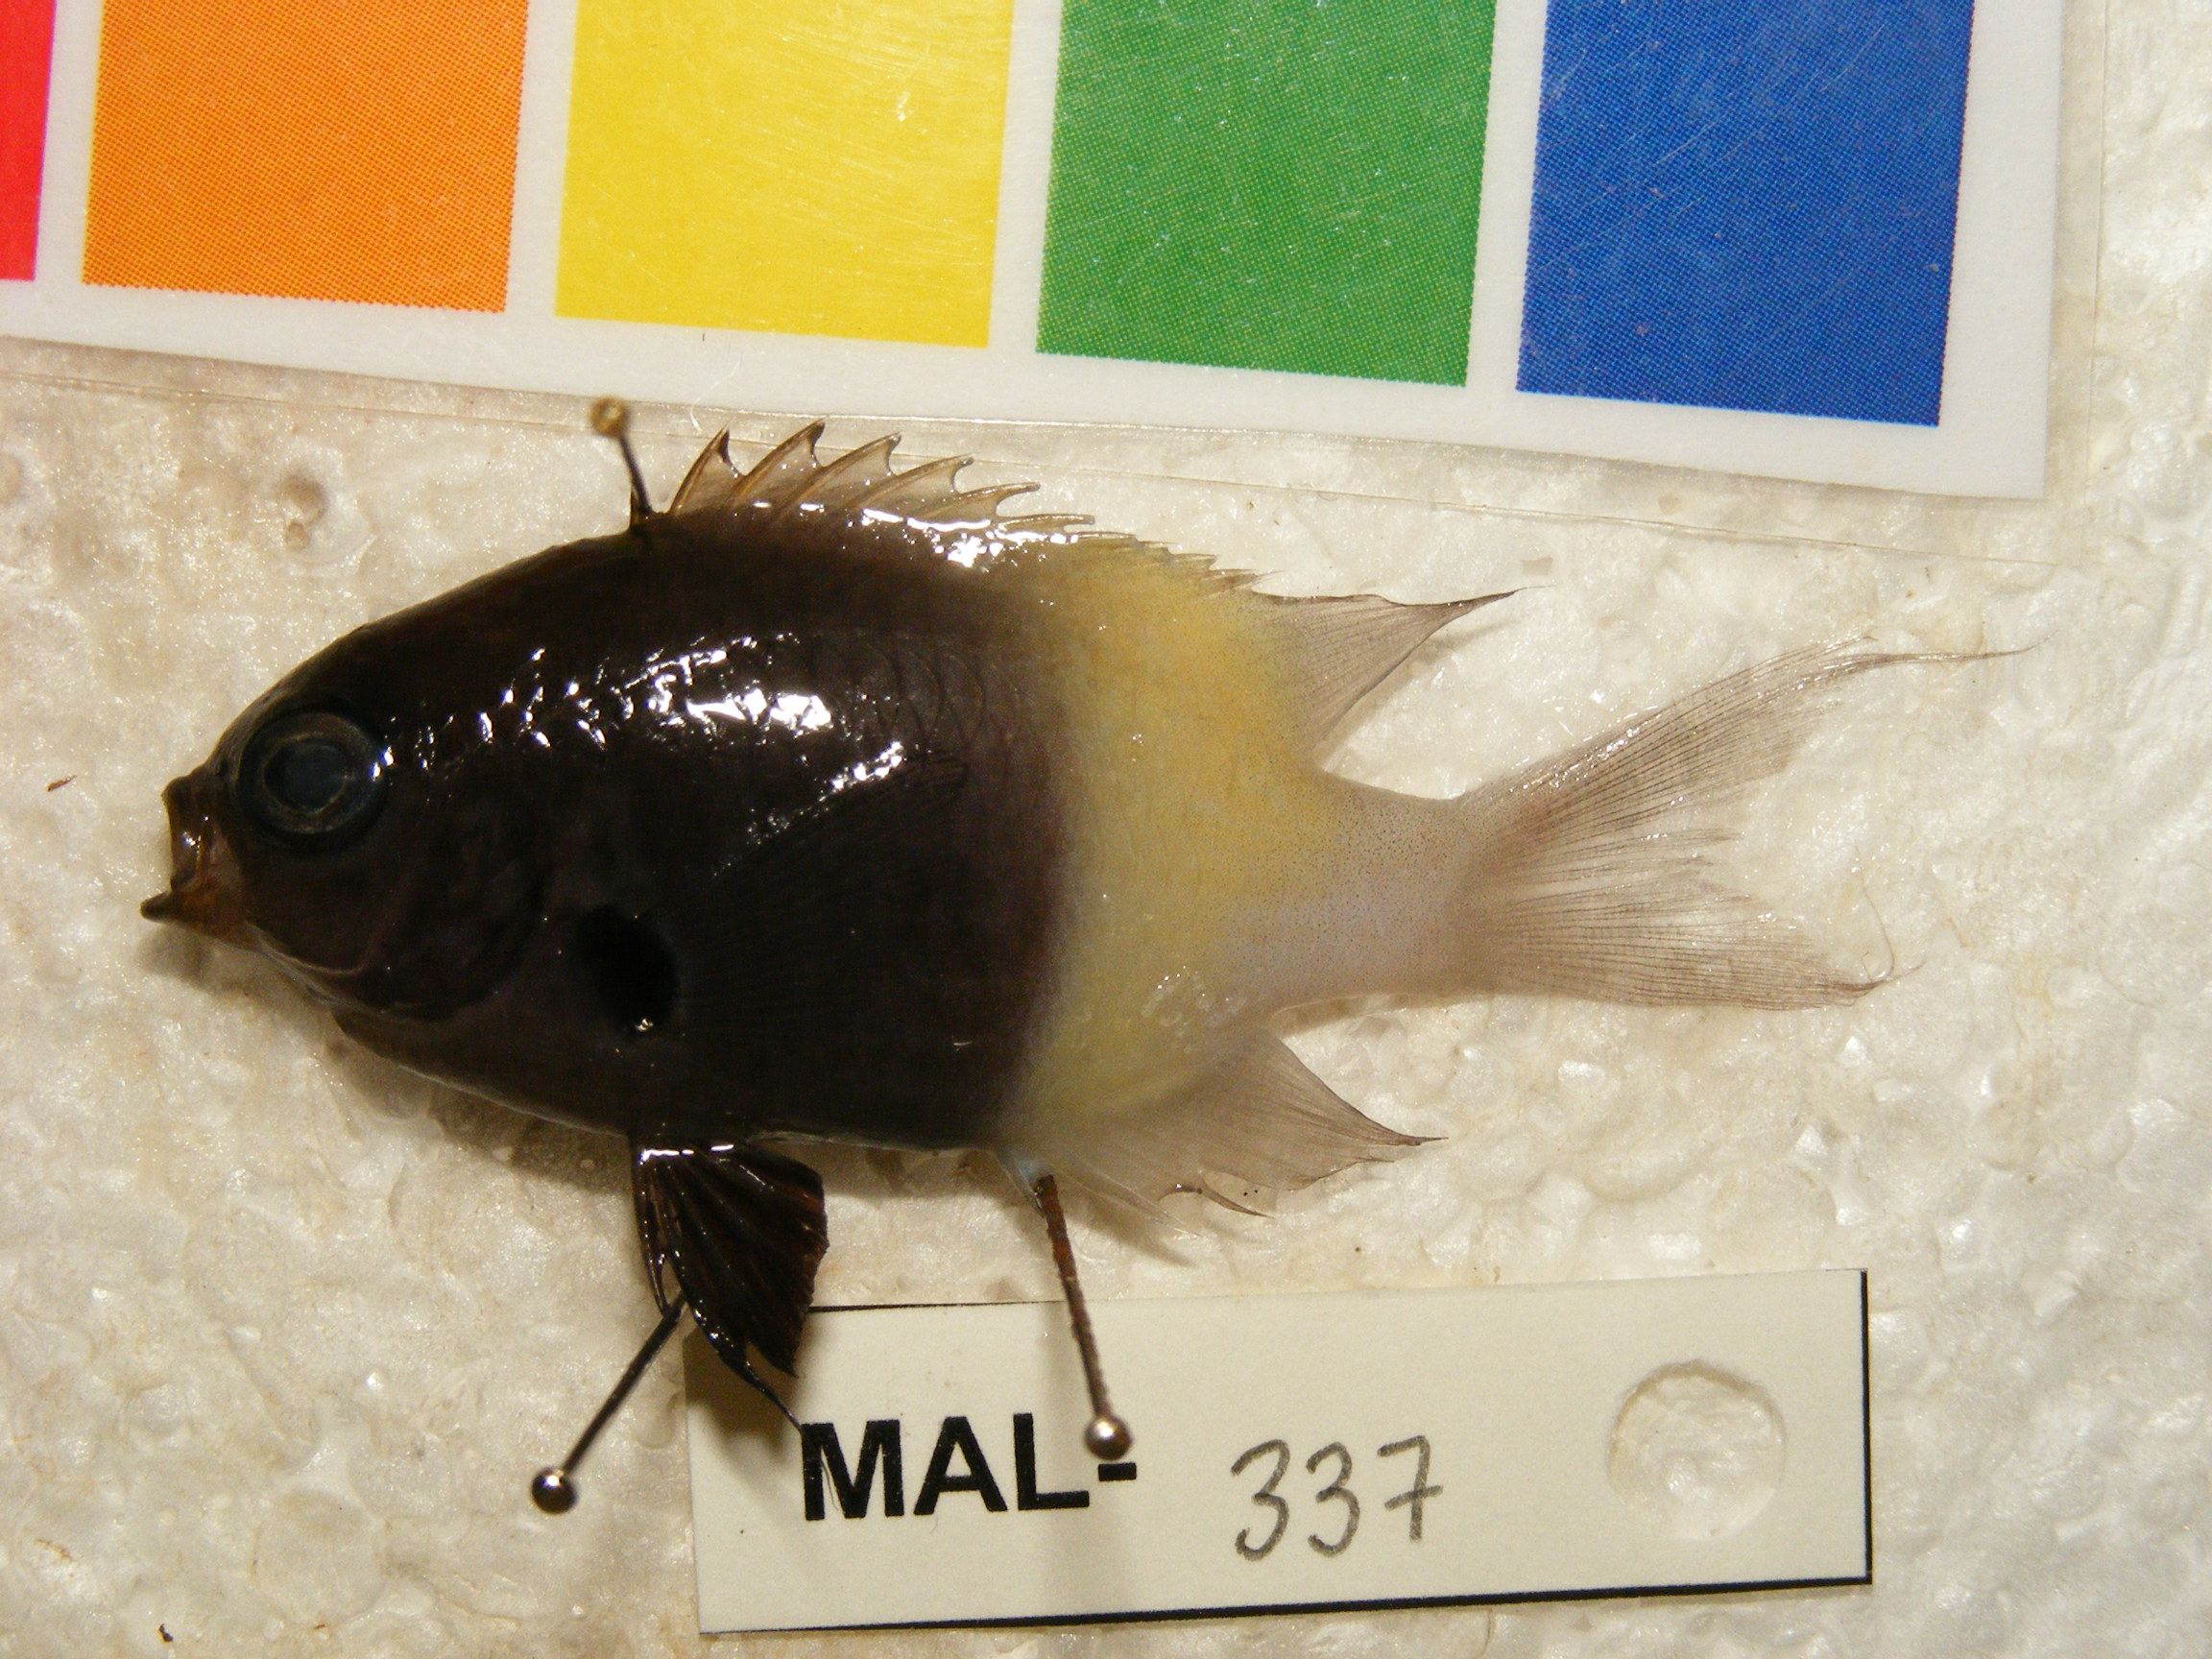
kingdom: Animalia
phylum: Chordata
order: Perciformes
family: Pomacentridae
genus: Chromis
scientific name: Chromis dimidiata
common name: Half-and-half chromis
